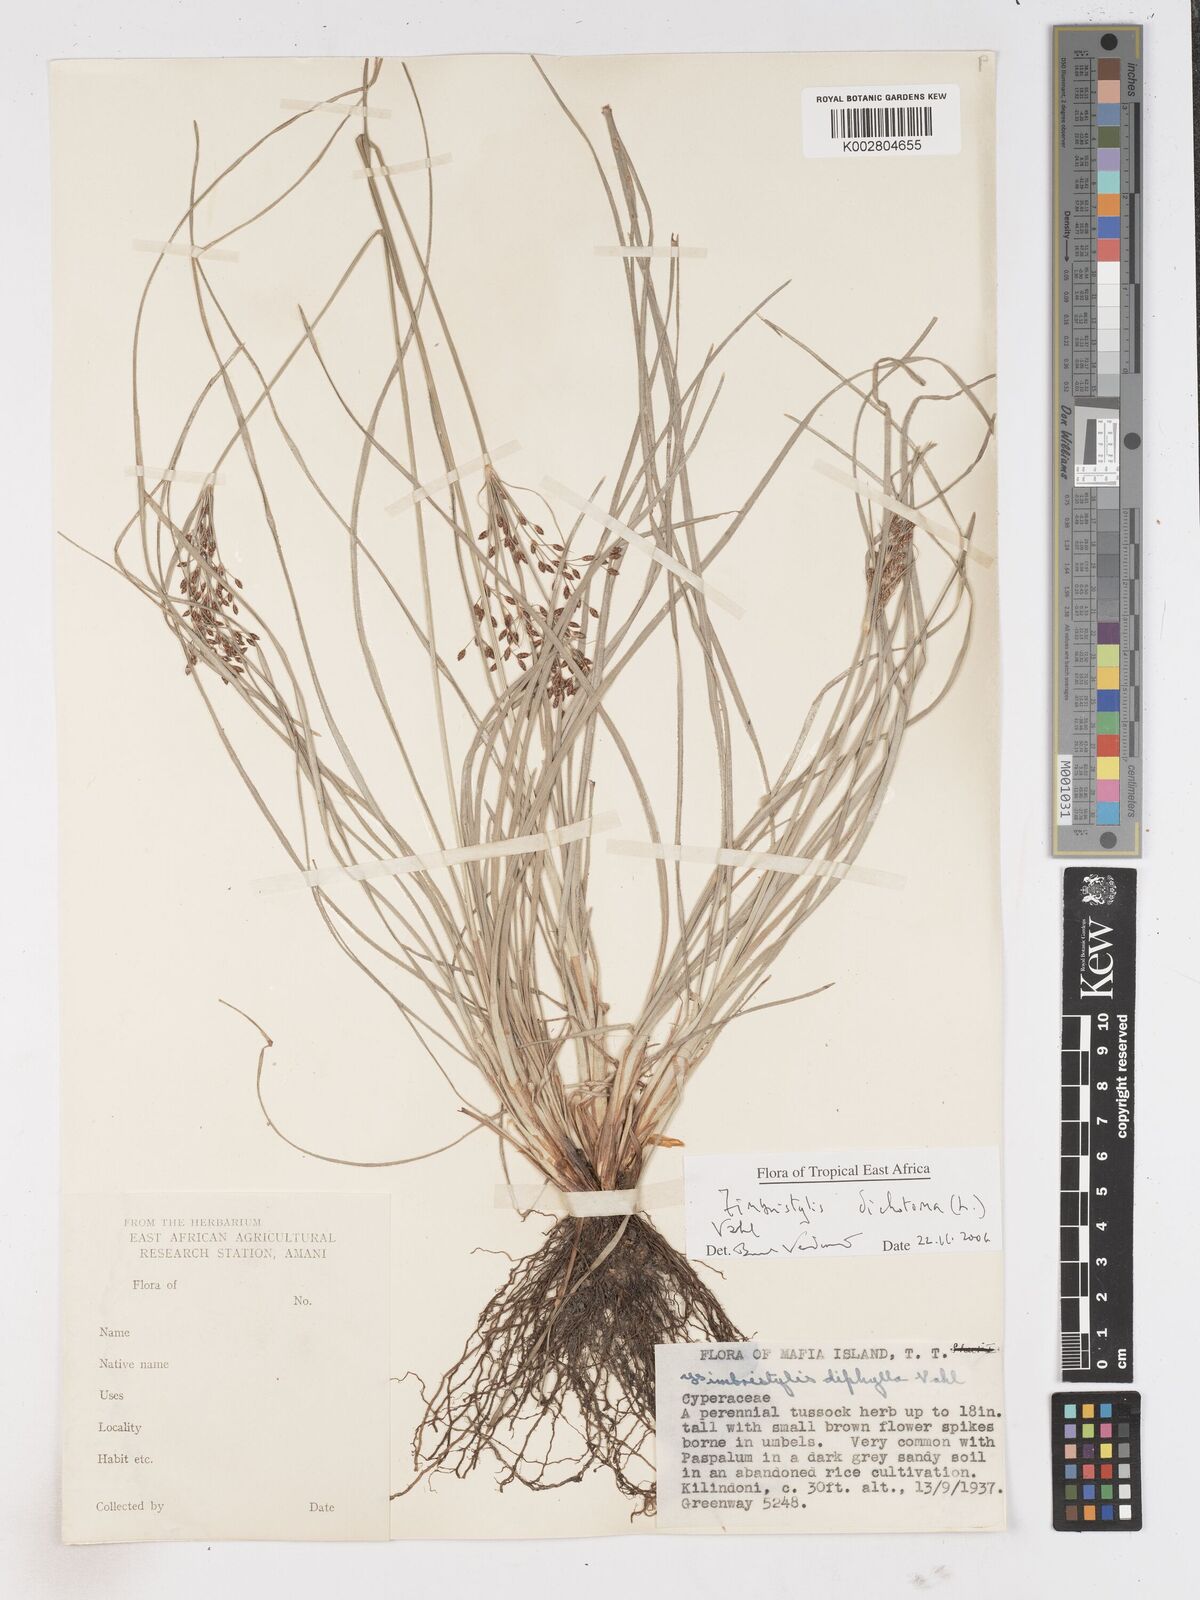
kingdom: Plantae
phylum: Tracheophyta
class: Liliopsida
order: Poales
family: Cyperaceae
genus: Fimbristylis
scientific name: Fimbristylis dichotoma
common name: Forked fimbry
